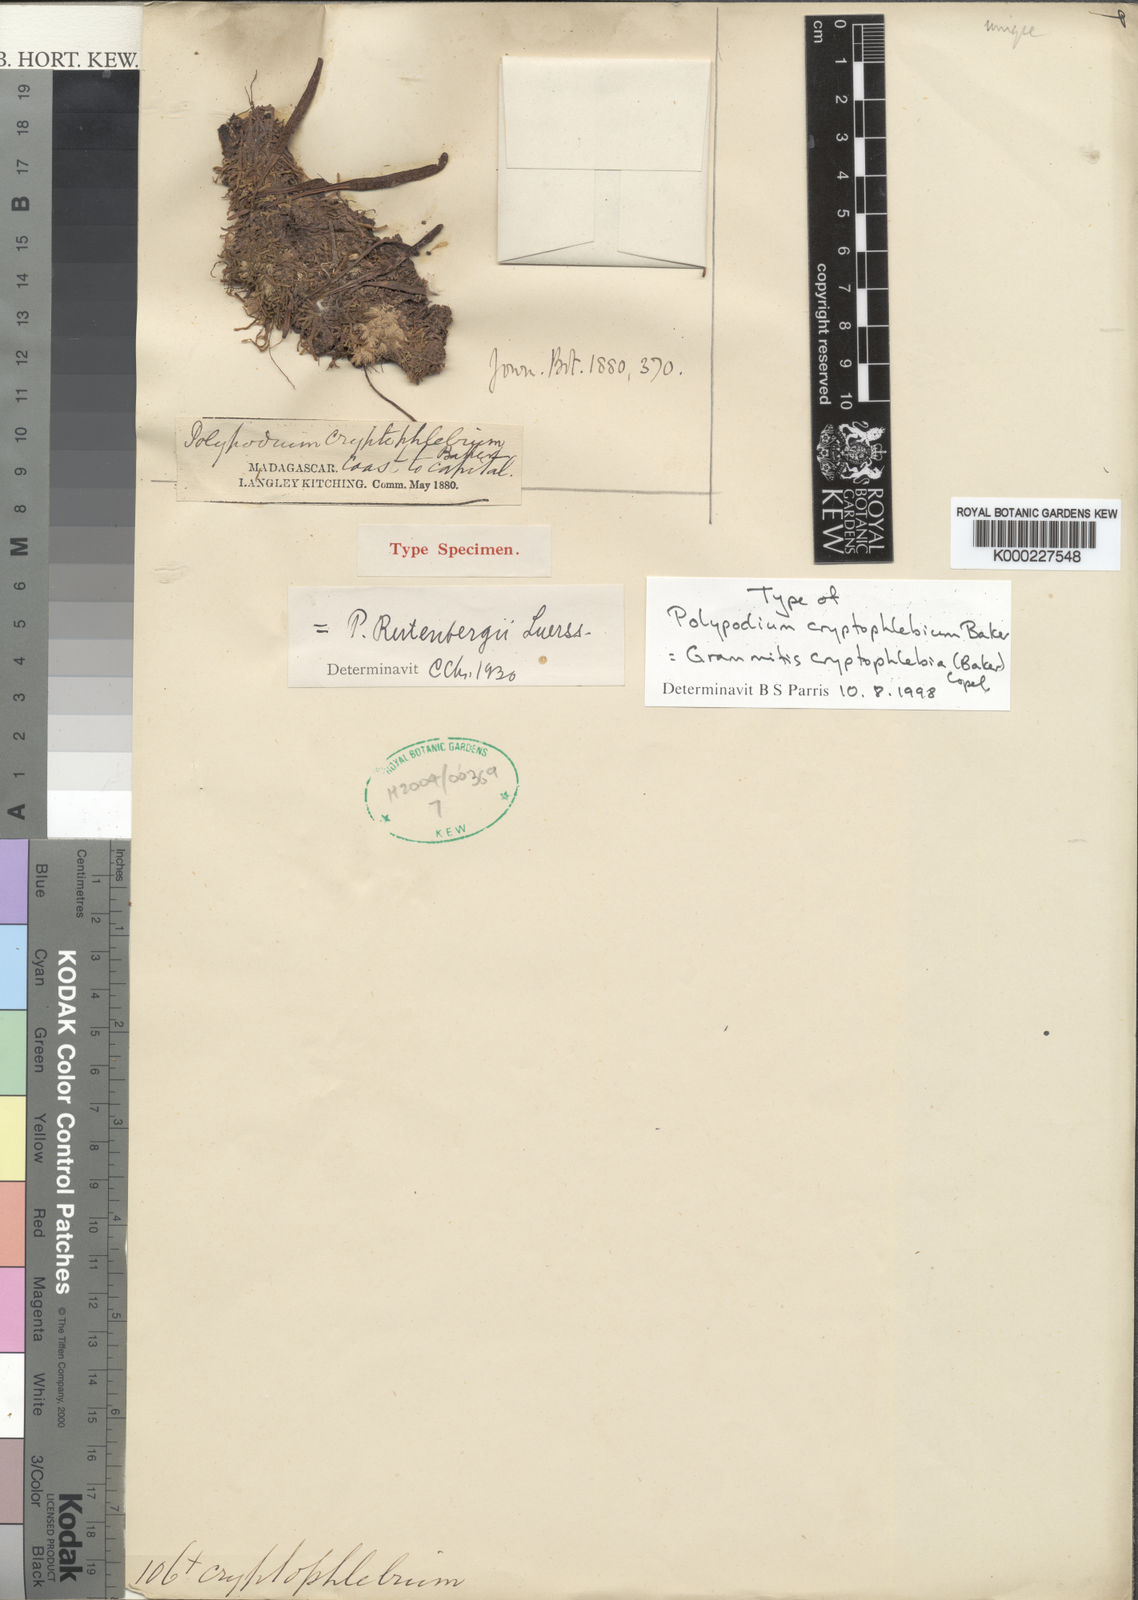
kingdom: Plantae
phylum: Tracheophyta
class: Polypodiopsida
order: Polypodiales
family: Polypodiaceae
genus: Grammitis
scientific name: Grammitis cryptophlebia
